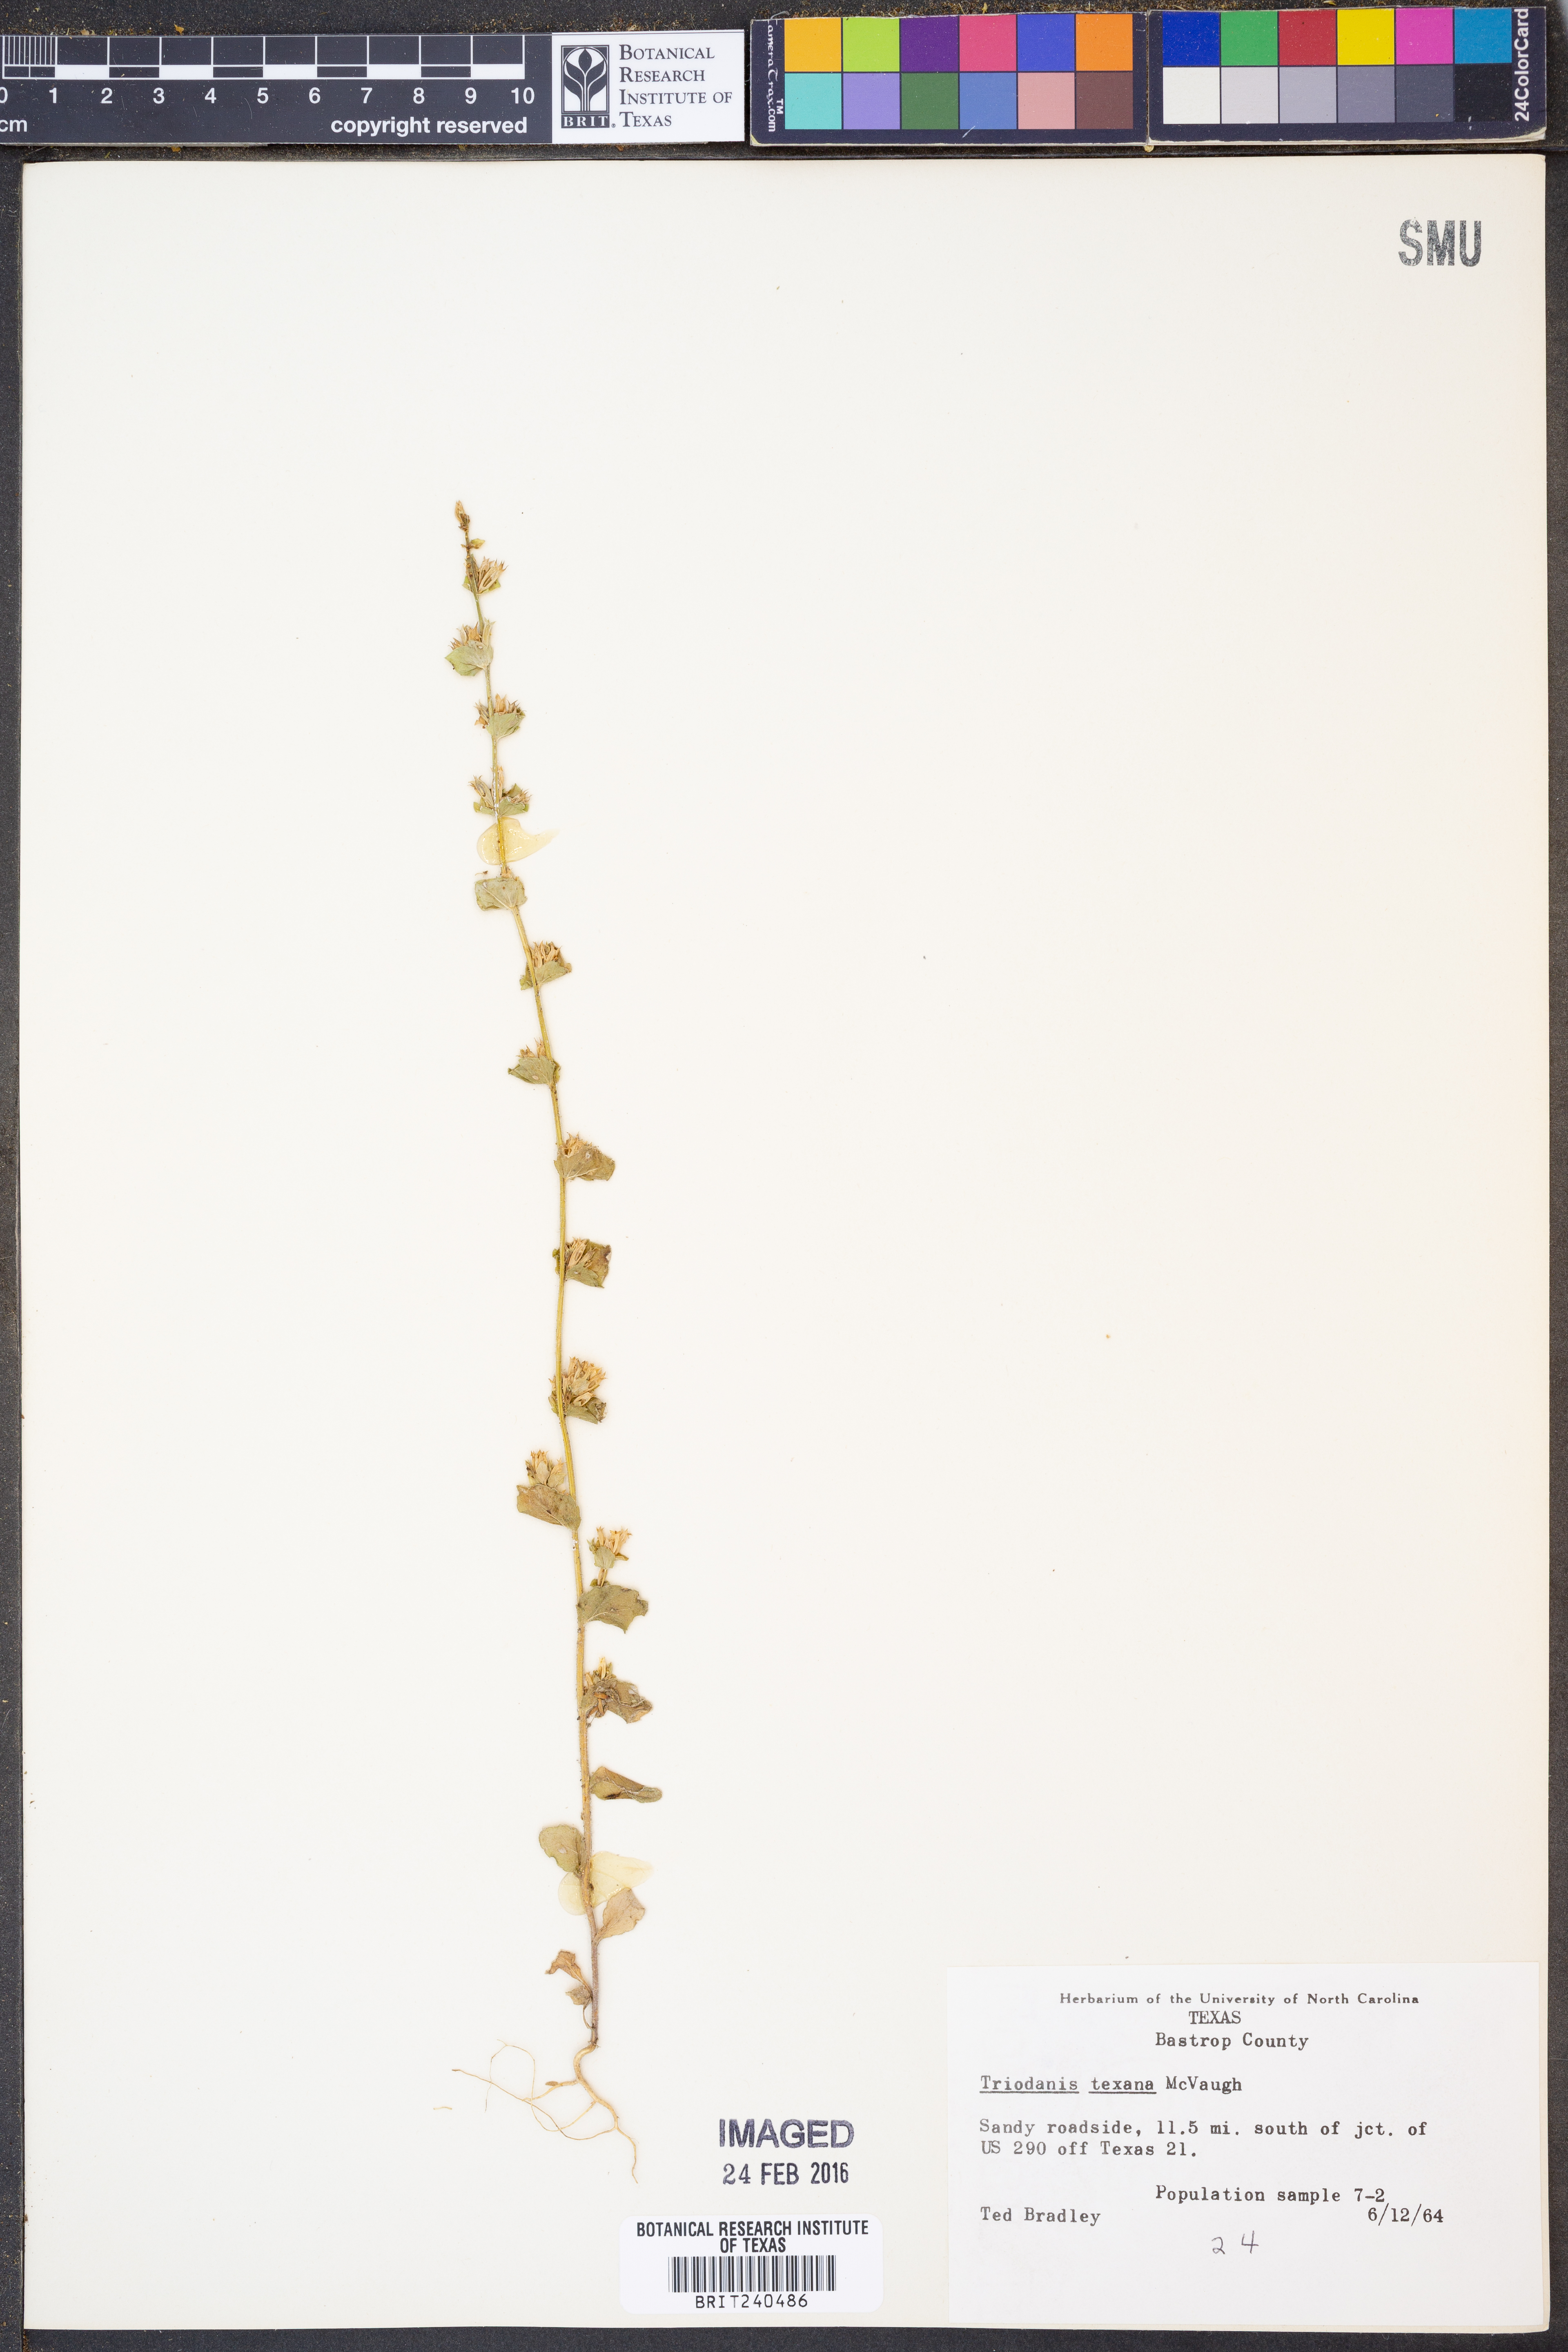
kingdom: Plantae
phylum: Tracheophyta
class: Magnoliopsida
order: Asterales
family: Campanulaceae
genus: Triodanis
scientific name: Triodanis texana
